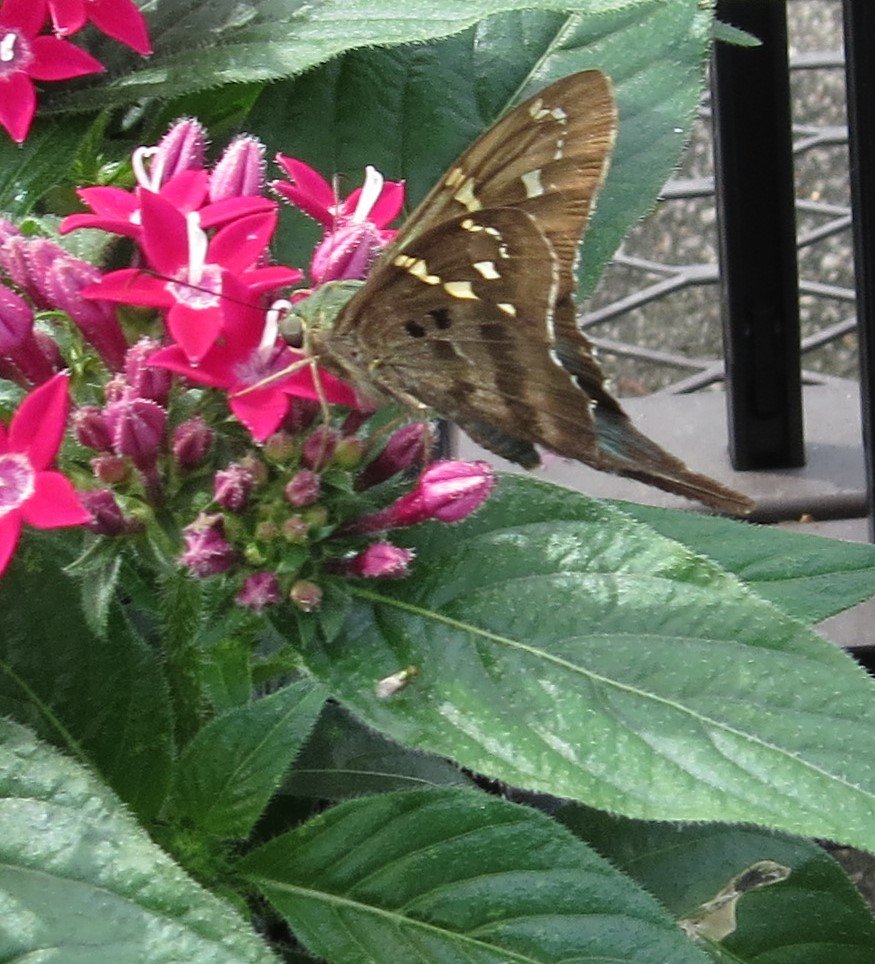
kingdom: Animalia
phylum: Arthropoda
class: Insecta
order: Lepidoptera
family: Hesperiidae
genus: Urbanus
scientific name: Urbanus proteus
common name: Long-tailed Skipper
